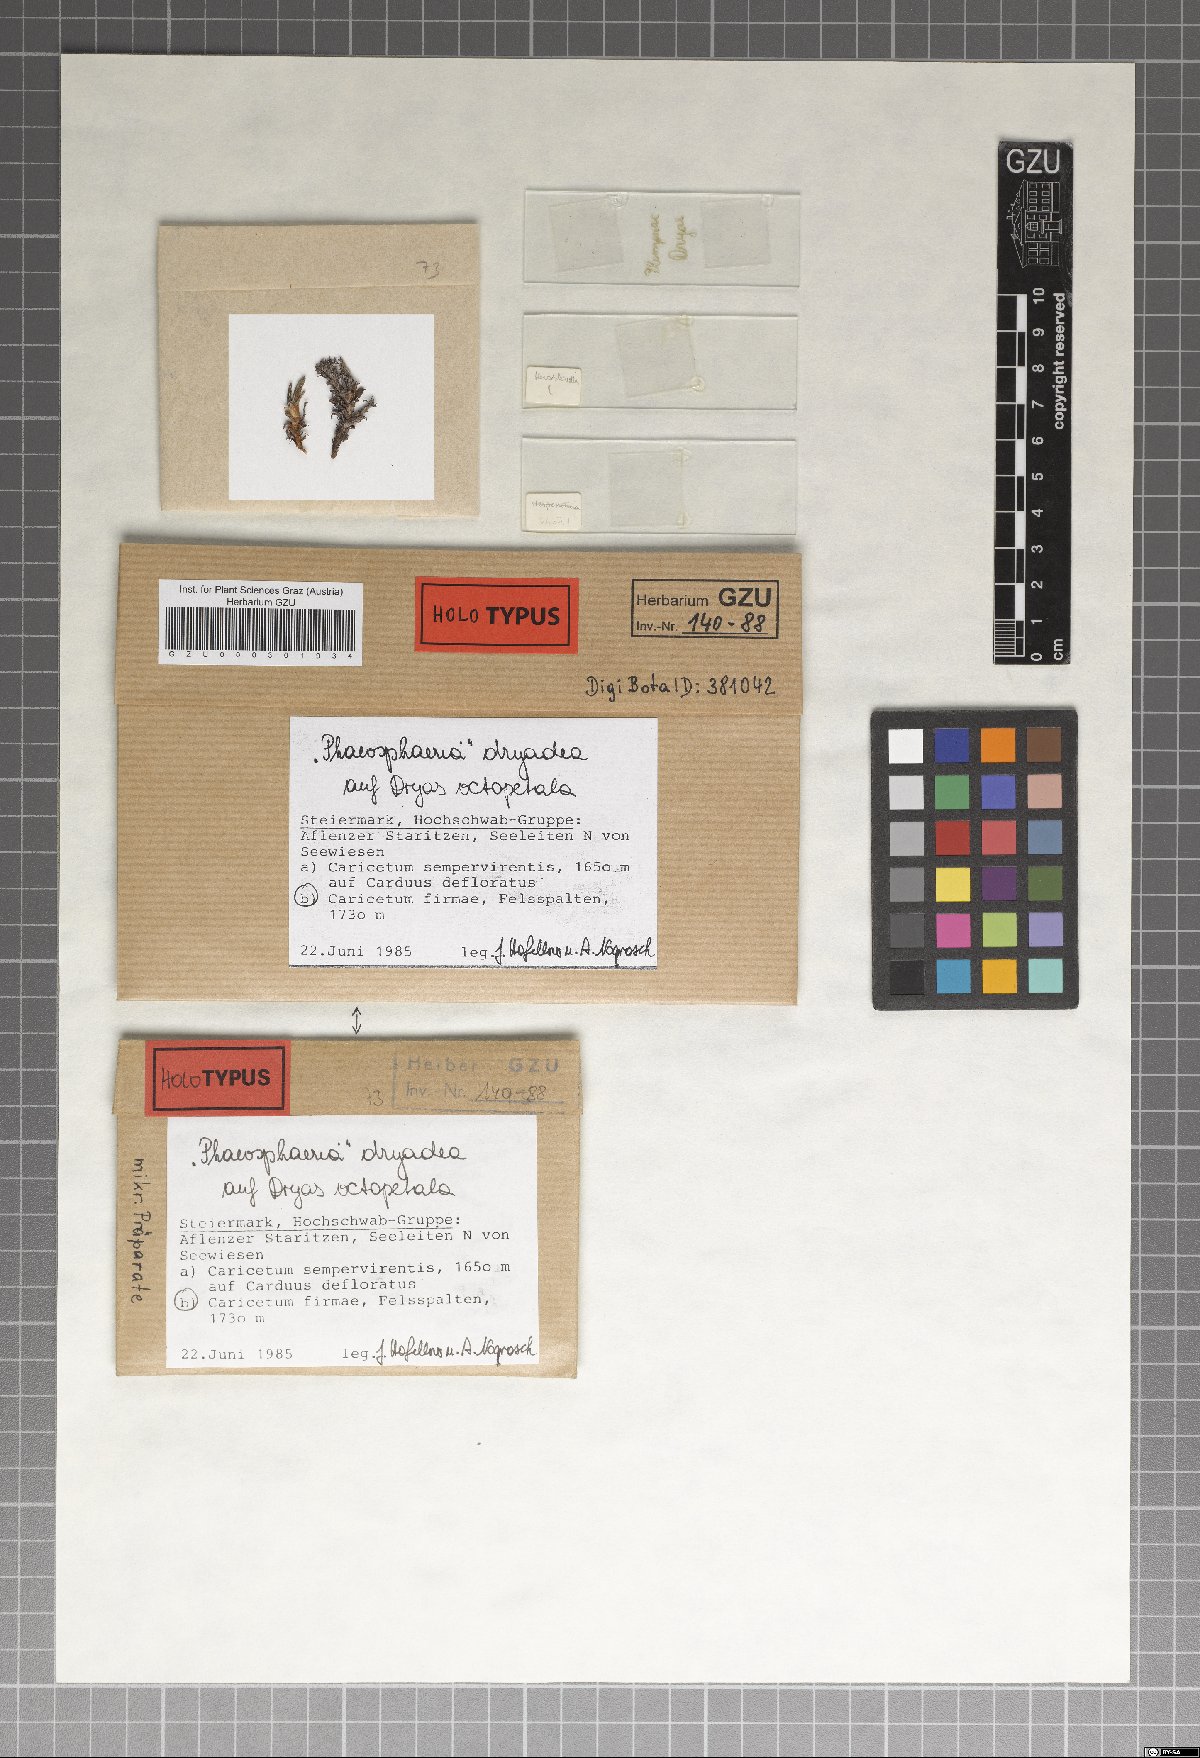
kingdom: Fungi
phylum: Ascomycota
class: Dothideomycetes
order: Pleosporales
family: Phaeosphaeriaceae
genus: Phaeosphaeria
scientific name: Phaeosphaeria dryadis
